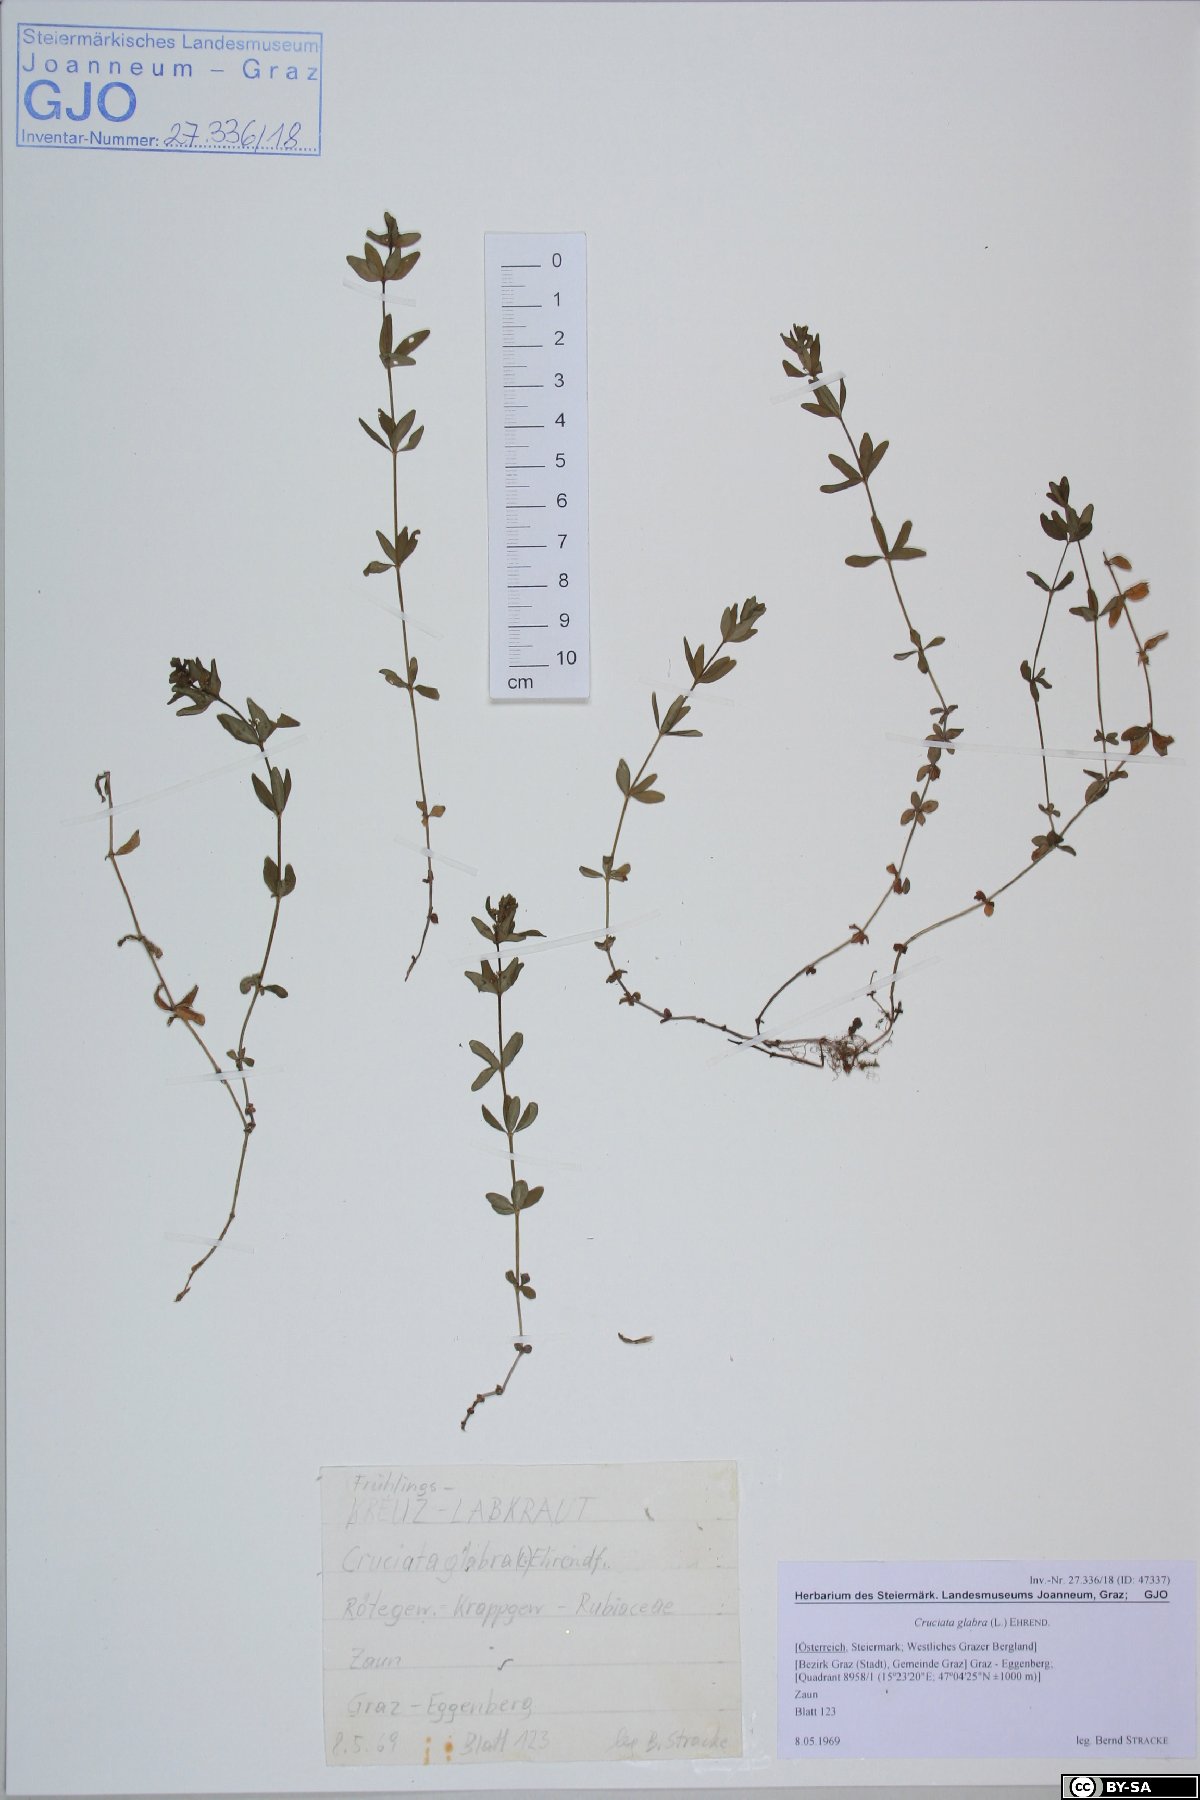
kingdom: Plantae
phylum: Tracheophyta
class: Magnoliopsida
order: Gentianales
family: Rubiaceae
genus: Cruciata
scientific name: Cruciata glabra
